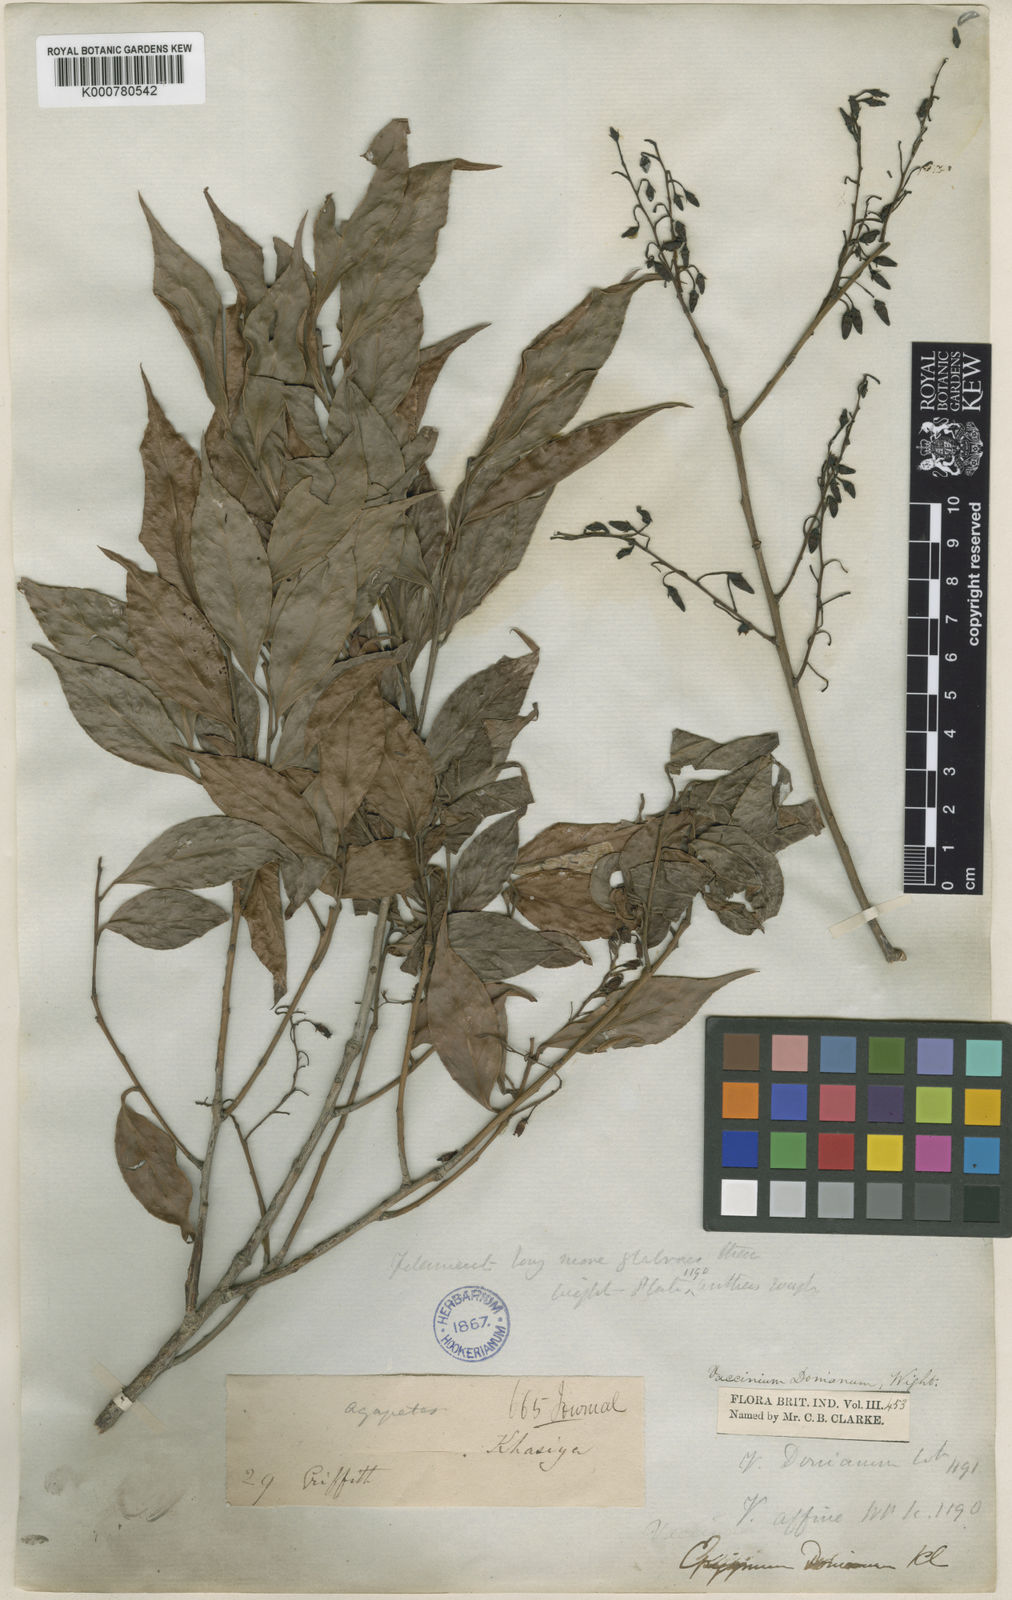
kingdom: Plantae
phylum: Tracheophyta
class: Magnoliopsida
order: Ericales
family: Ericaceae
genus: Vaccinium
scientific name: Vaccinium
